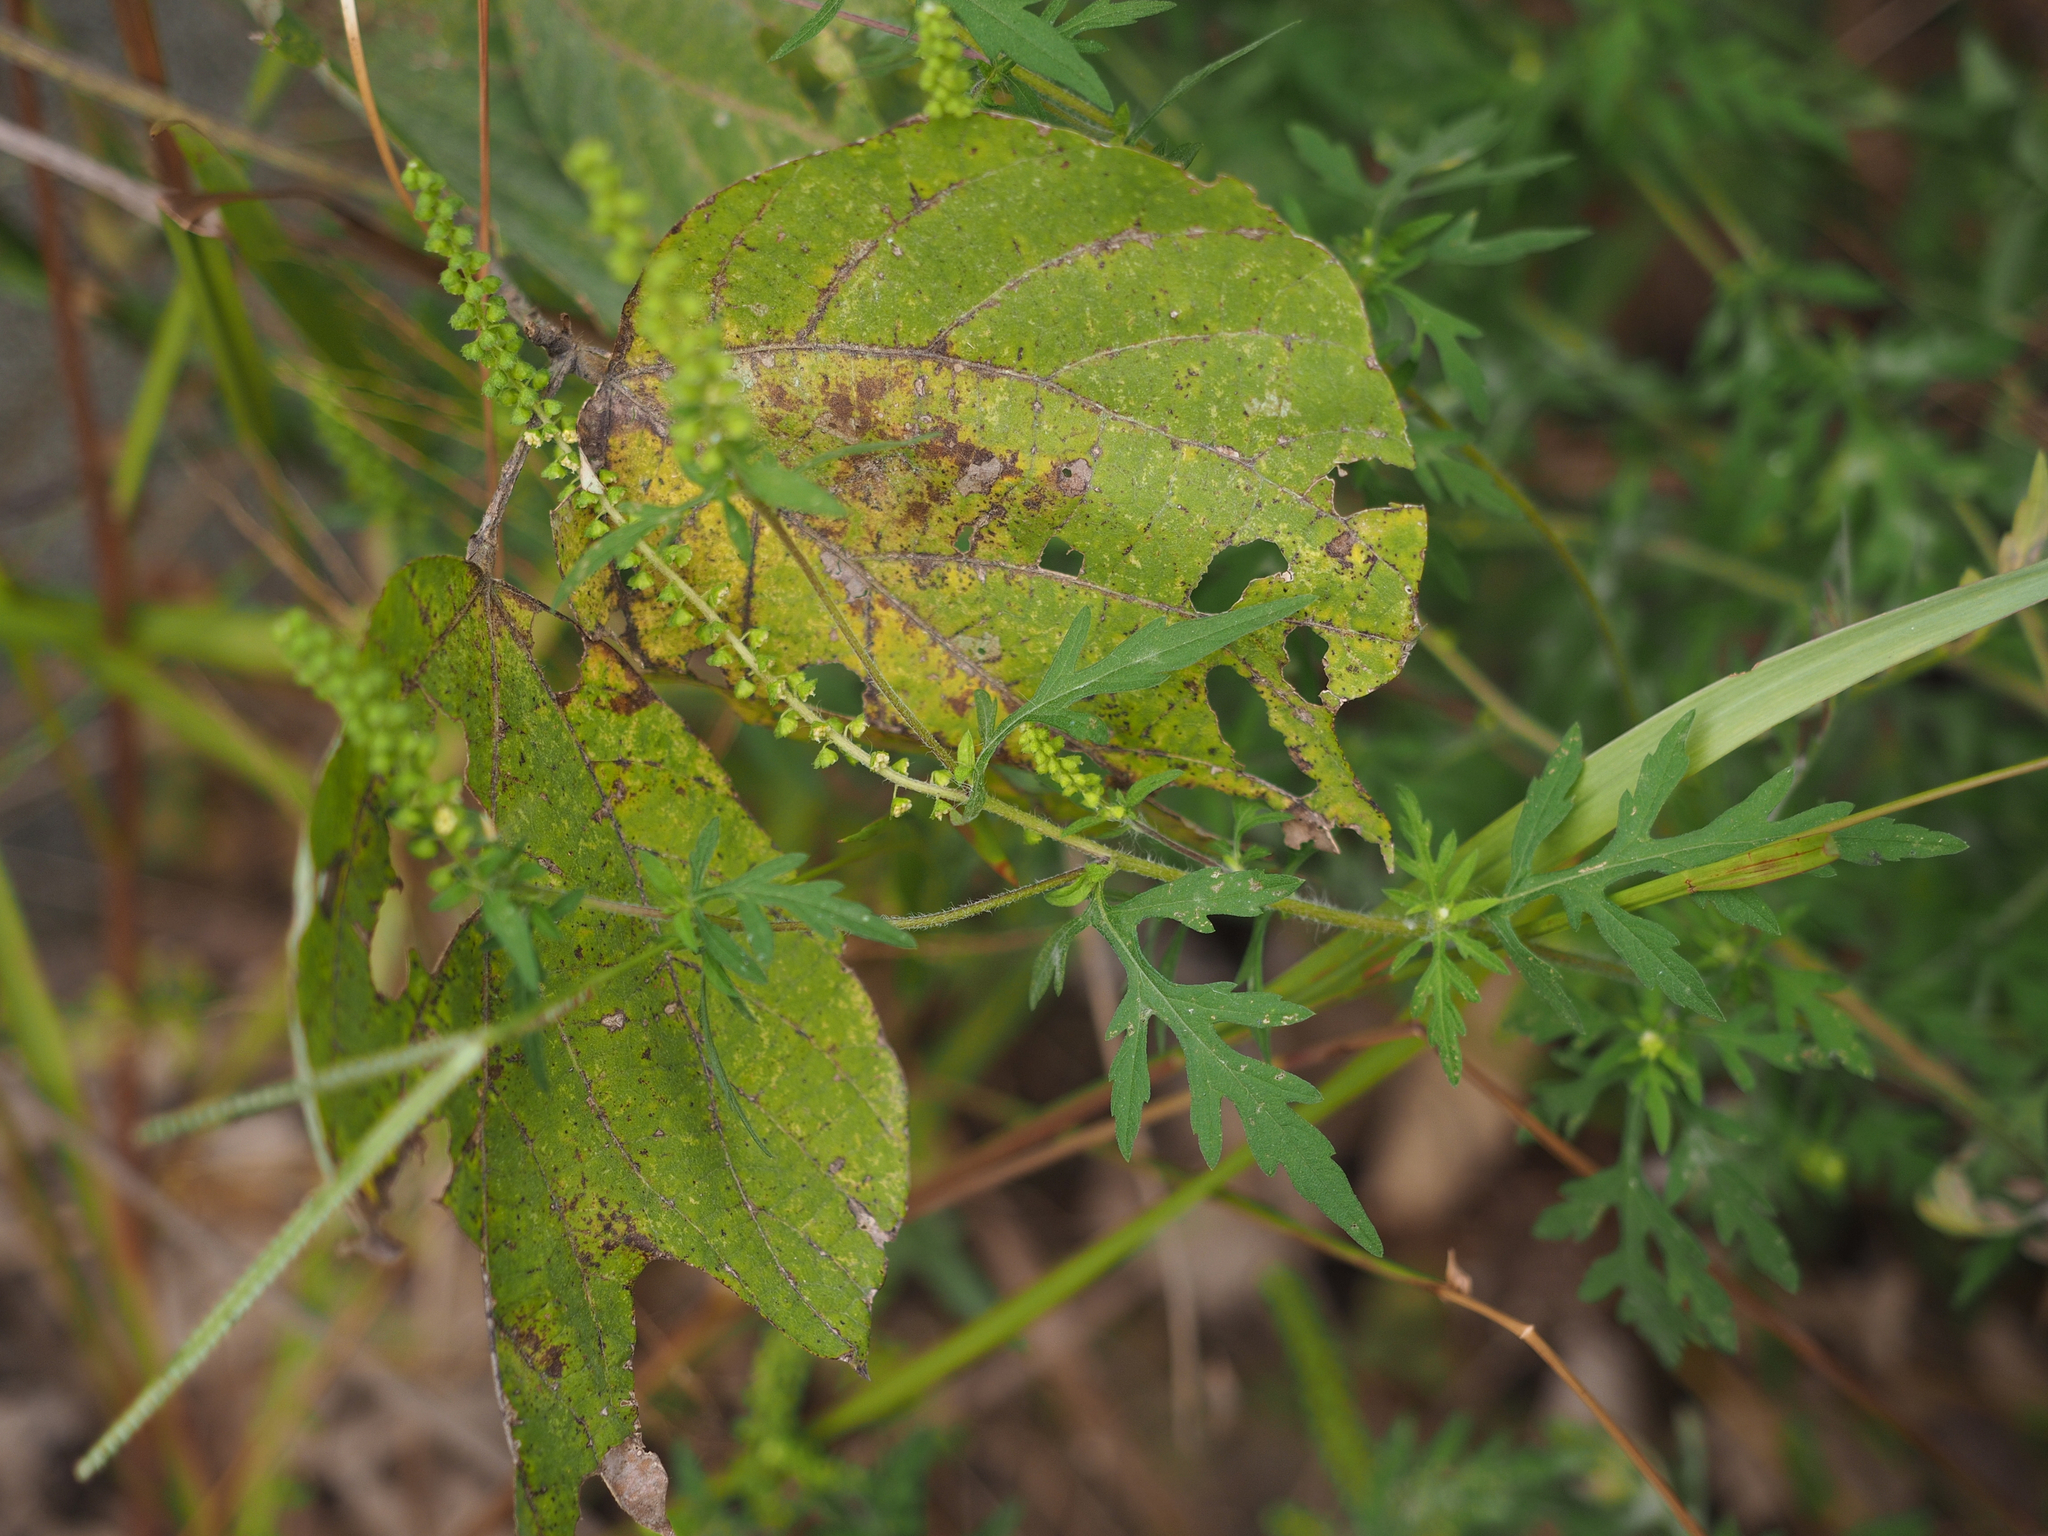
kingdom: Plantae
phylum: Tracheophyta
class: Magnoliopsida
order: Asterales
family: Asteraceae
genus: Ambrosia
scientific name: Ambrosia psilostachya
